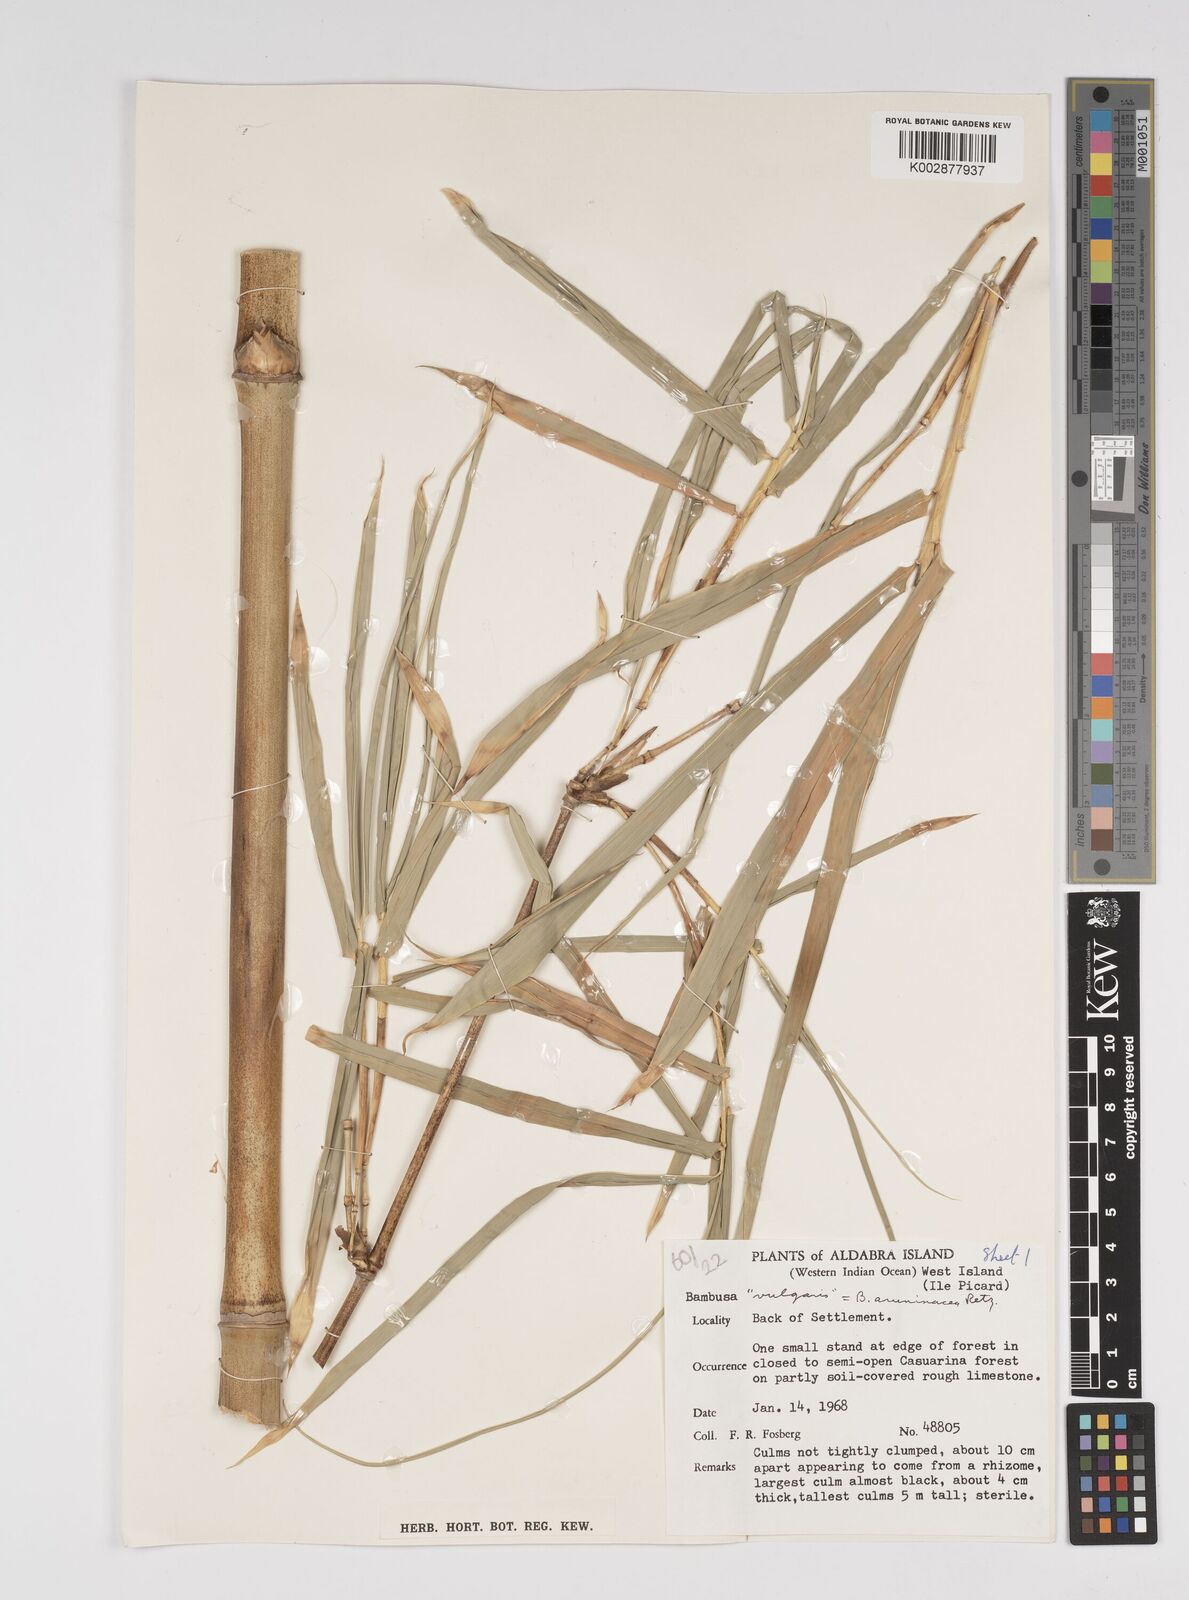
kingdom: Plantae
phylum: Tracheophyta
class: Liliopsida
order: Poales
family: Poaceae
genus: Bambusa
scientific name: Bambusa vulgaris
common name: Common bamboo
